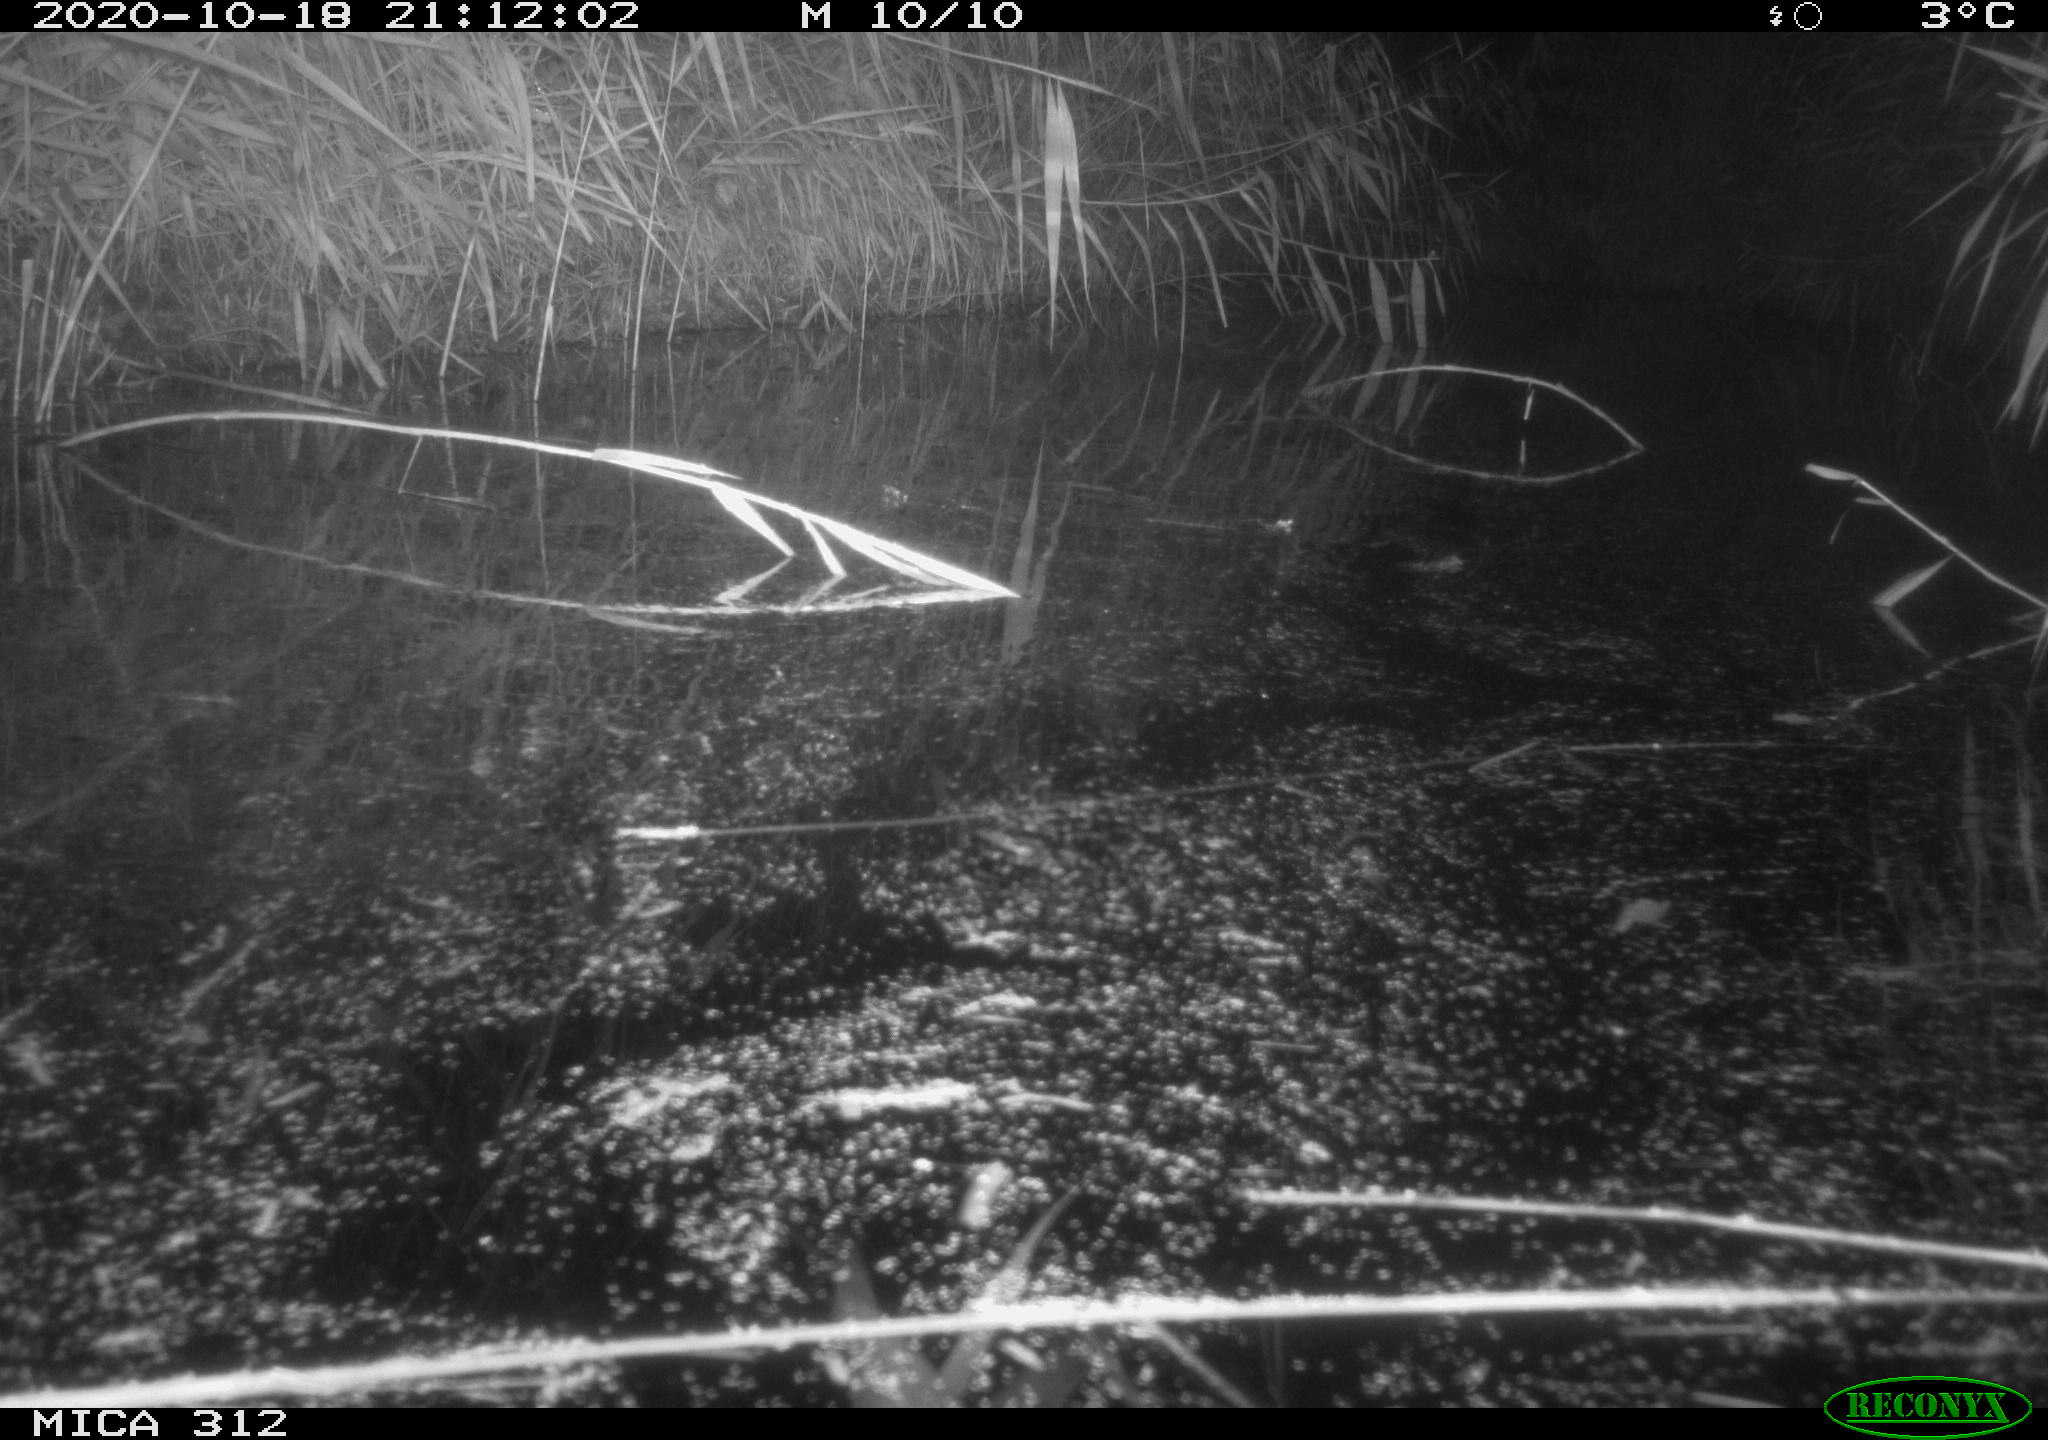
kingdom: Animalia
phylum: Chordata
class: Mammalia
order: Rodentia
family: Muridae
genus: Rattus
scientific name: Rattus norvegicus
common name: Brown rat
